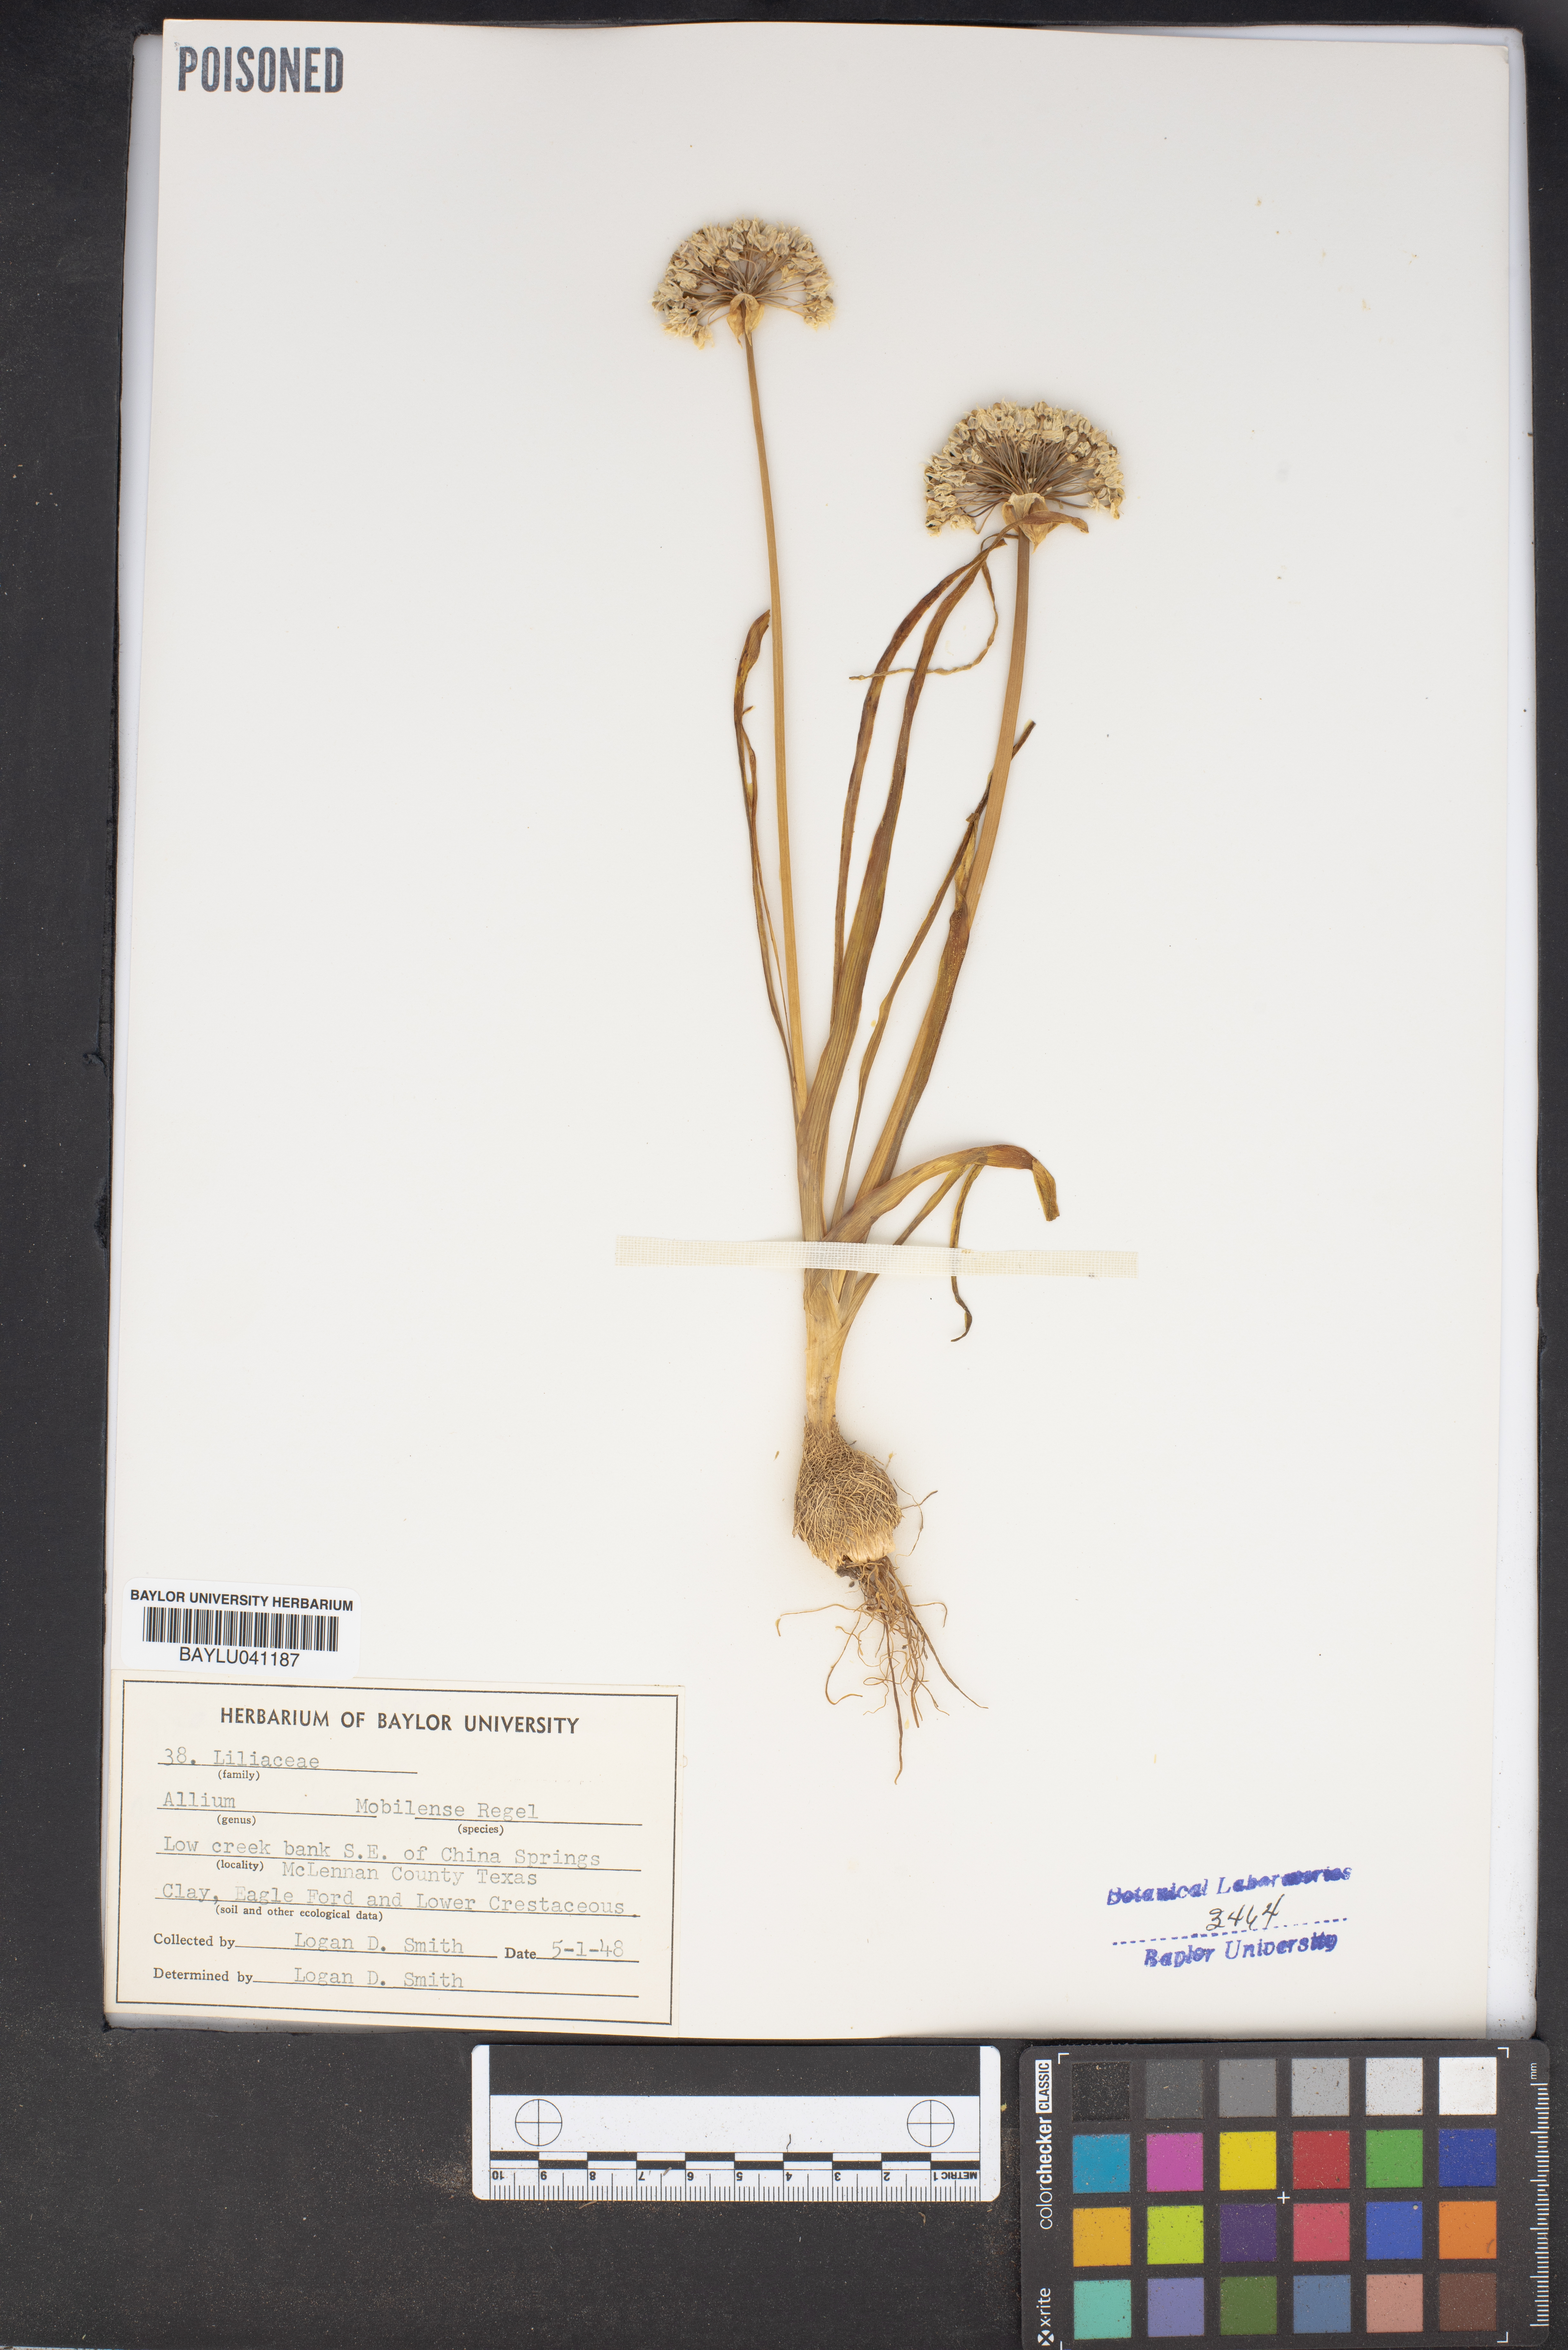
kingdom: Plantae
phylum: Tracheophyta
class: Liliopsida
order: Asparagales
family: Amaryllidaceae
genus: Allium
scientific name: Allium canadense
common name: Meadow garlic
